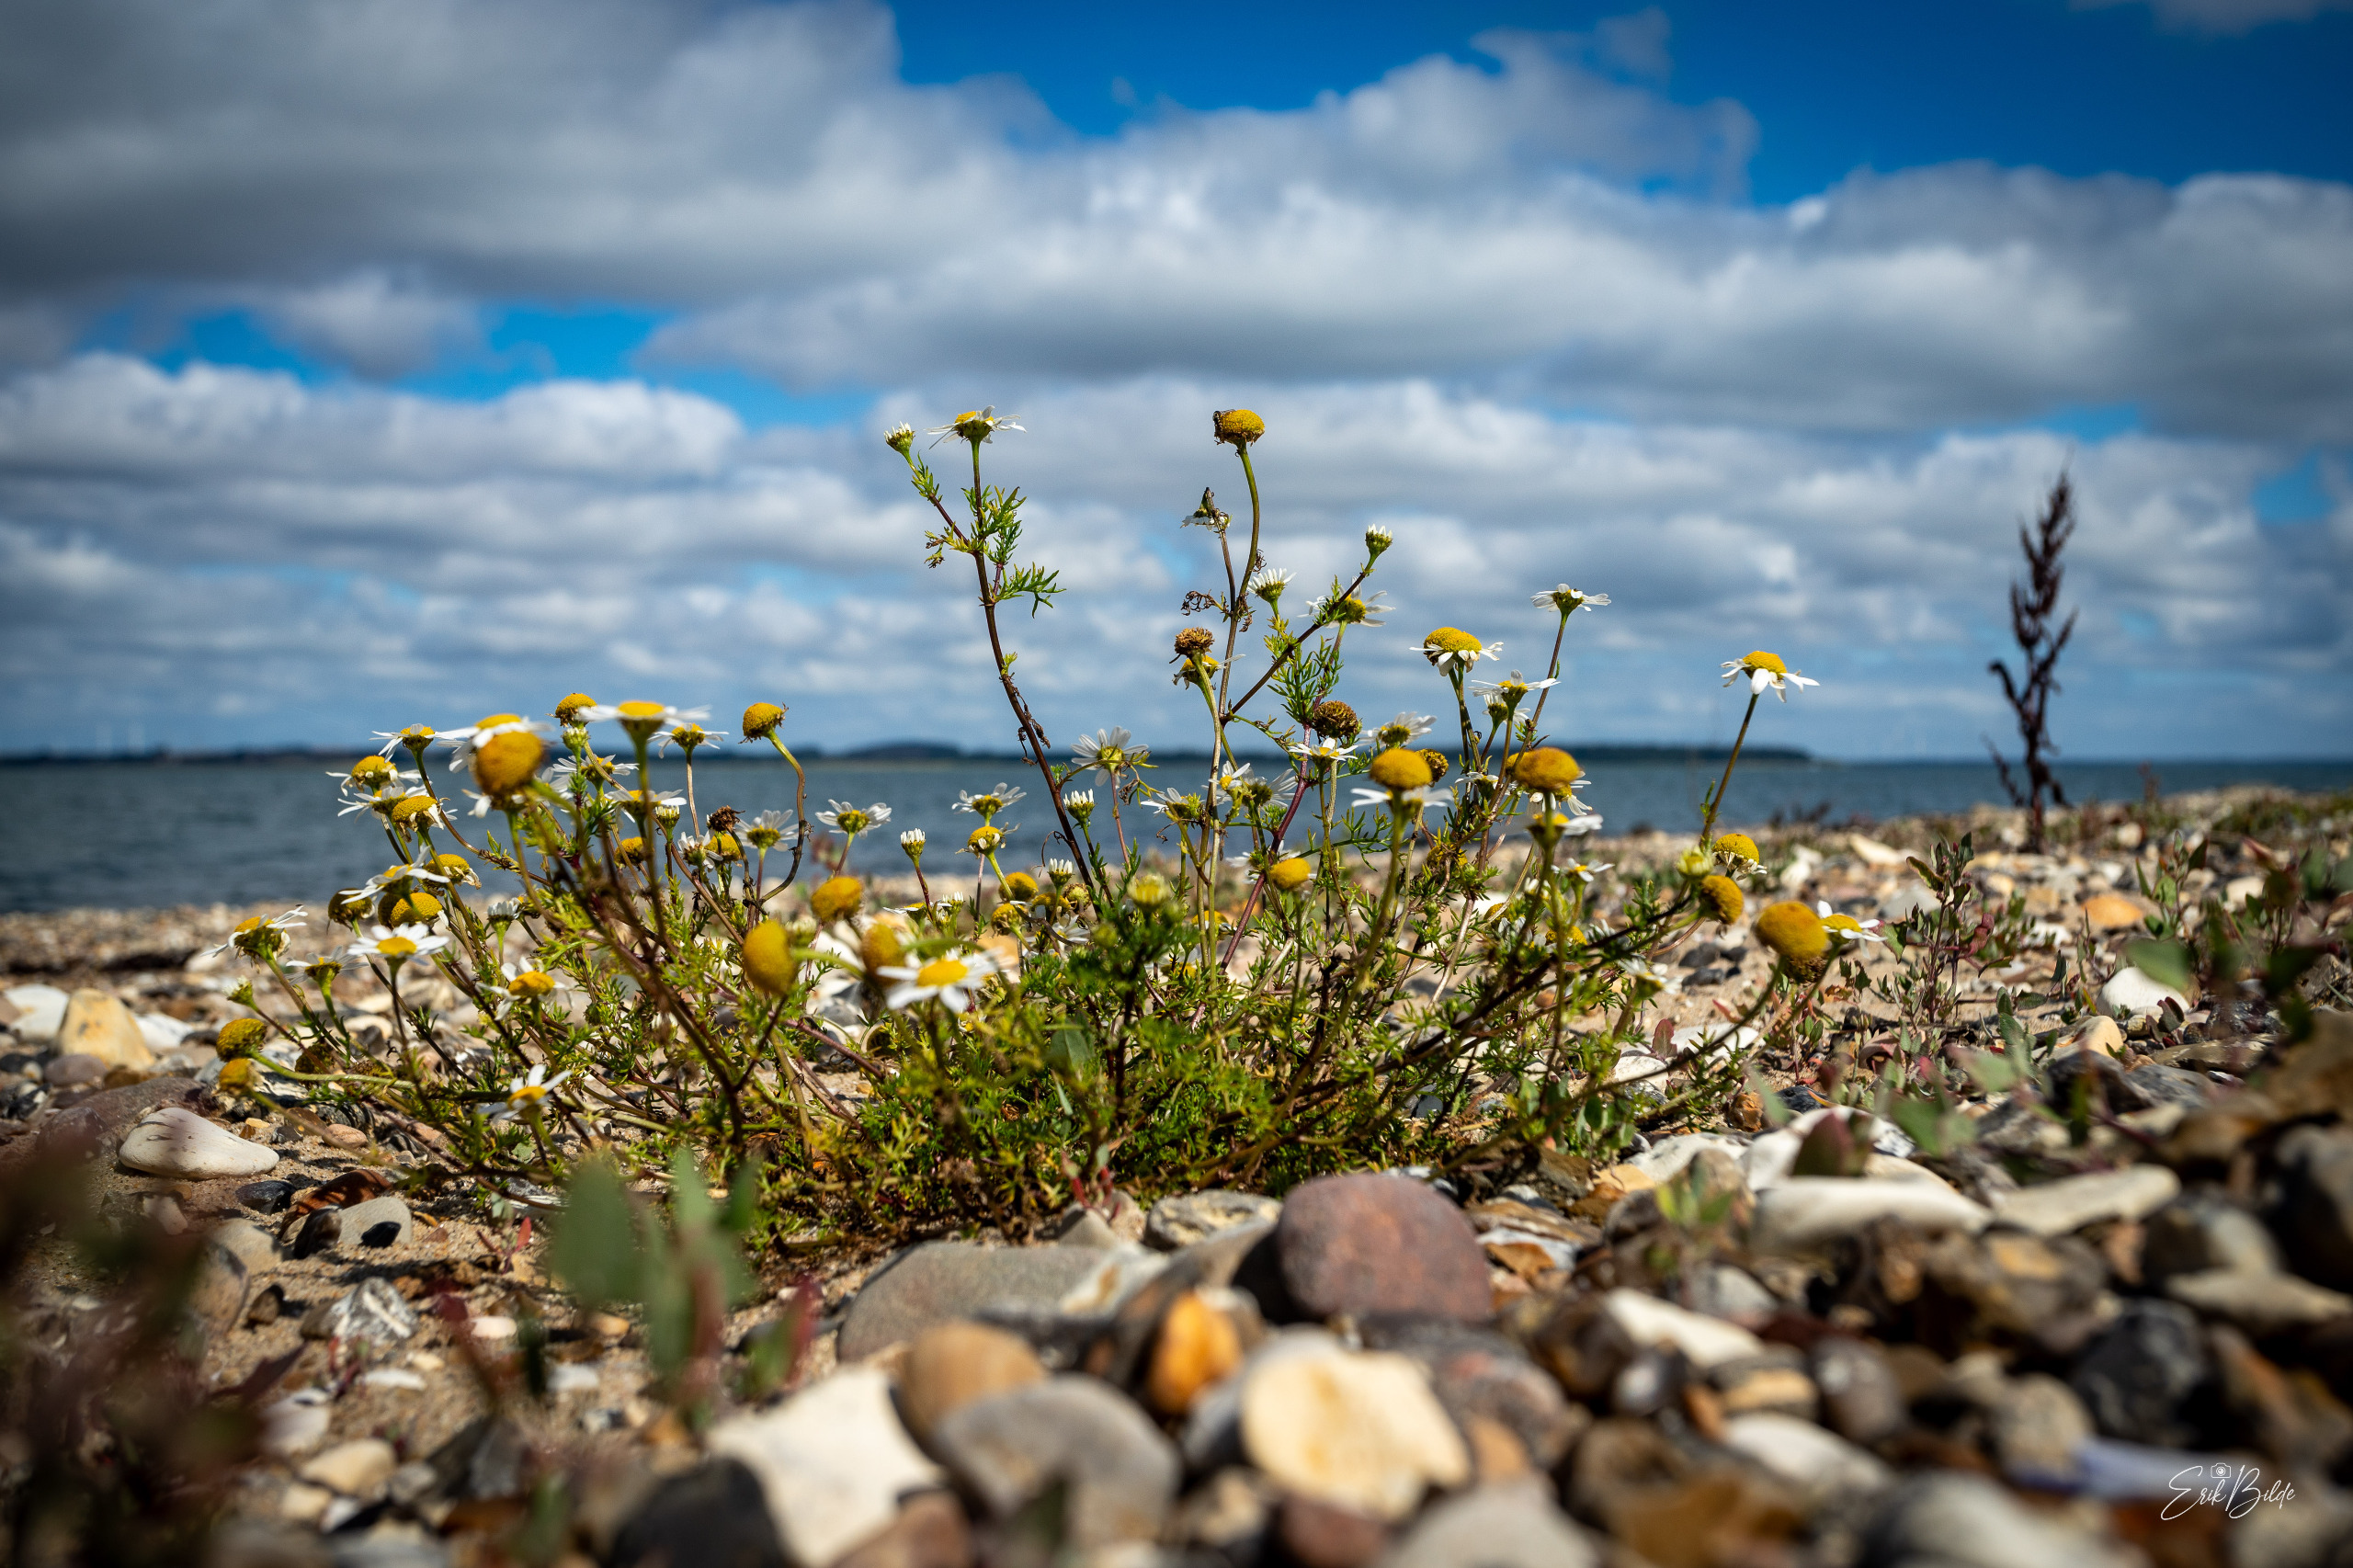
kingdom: Plantae
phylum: Tracheophyta
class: Magnoliopsida
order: Asterales
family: Asteraceae
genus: Tripleurospermum
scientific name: Tripleurospermum maritimum
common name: Strand-kamille
